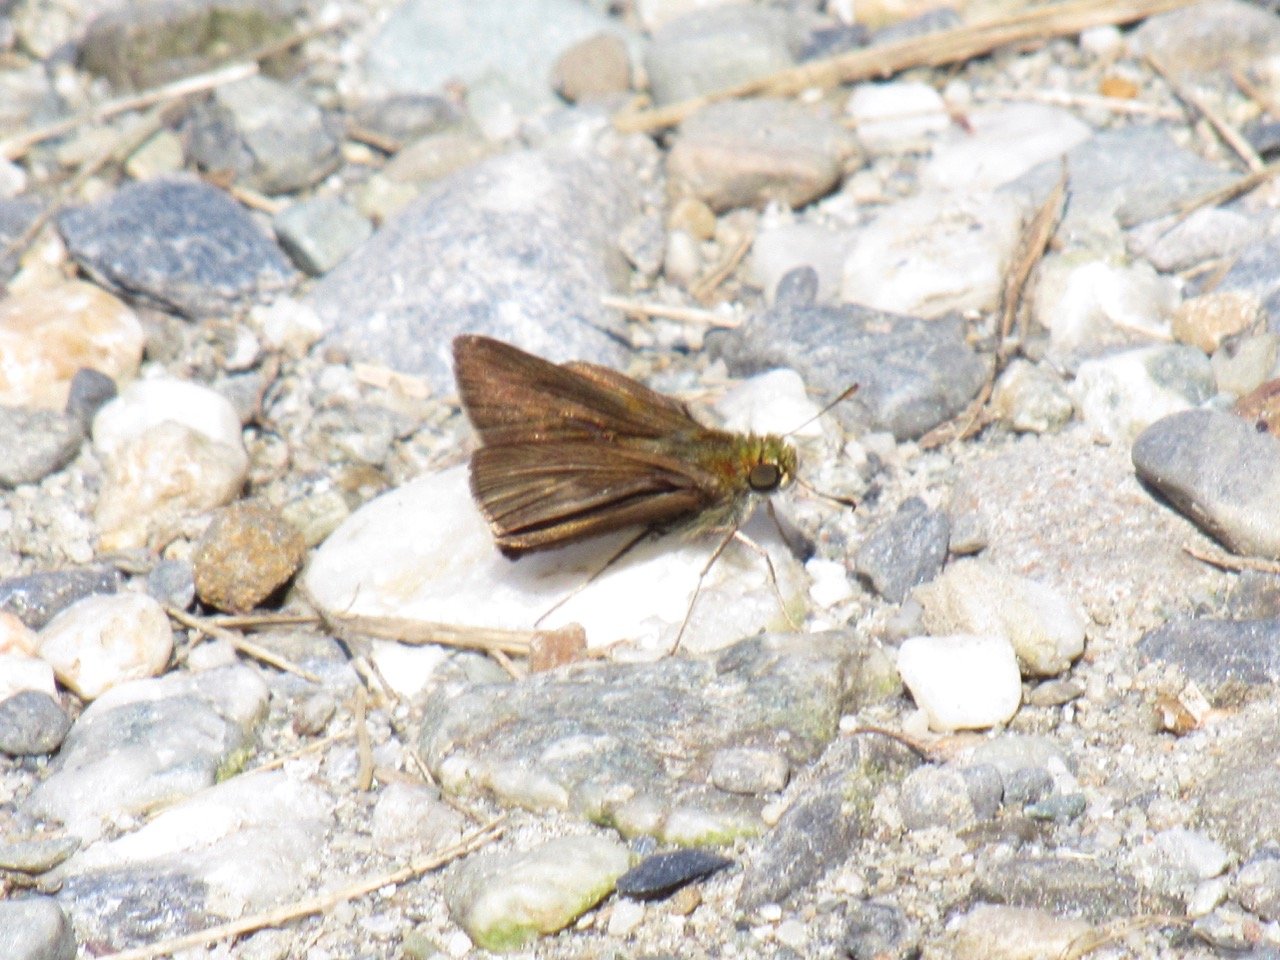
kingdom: Animalia
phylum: Arthropoda
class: Insecta
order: Lepidoptera
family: Hesperiidae
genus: Euphyes
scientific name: Euphyes vestris
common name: Dun Skipper
